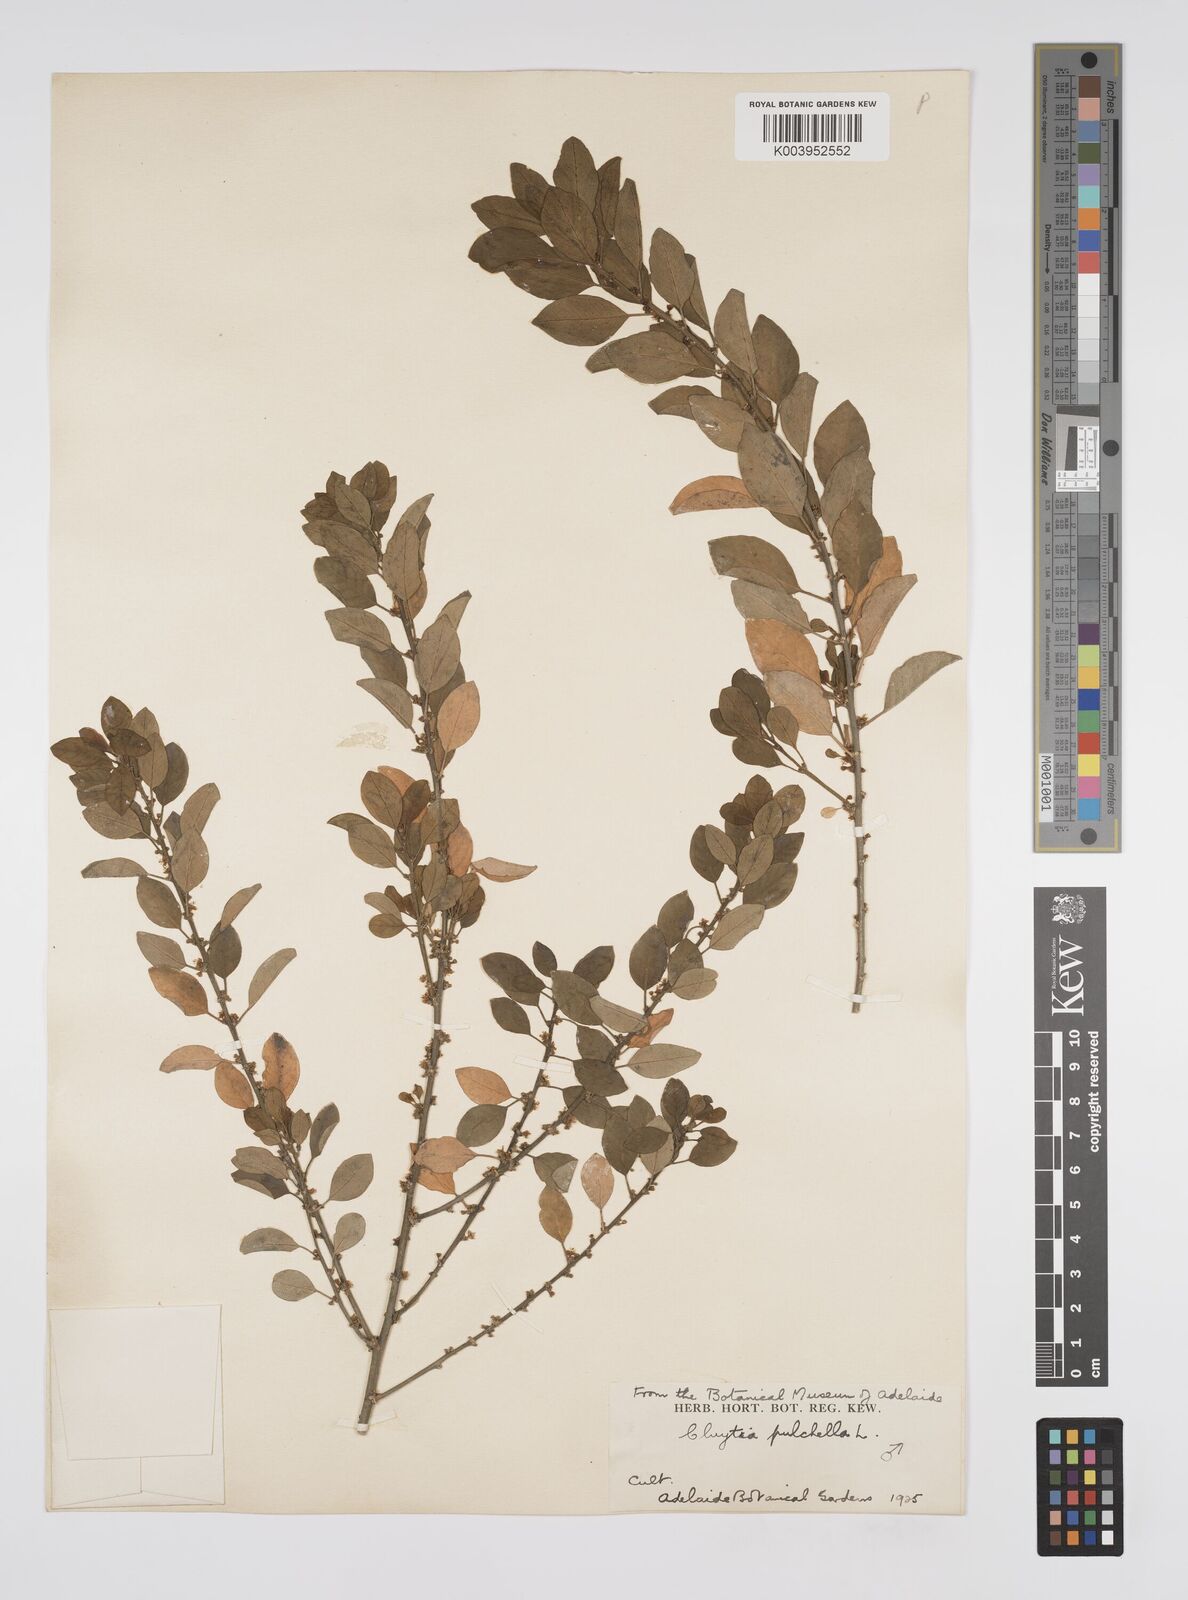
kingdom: Plantae
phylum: Tracheophyta
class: Magnoliopsida
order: Malpighiales
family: Peraceae
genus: Clutia
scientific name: Clutia pulchella
